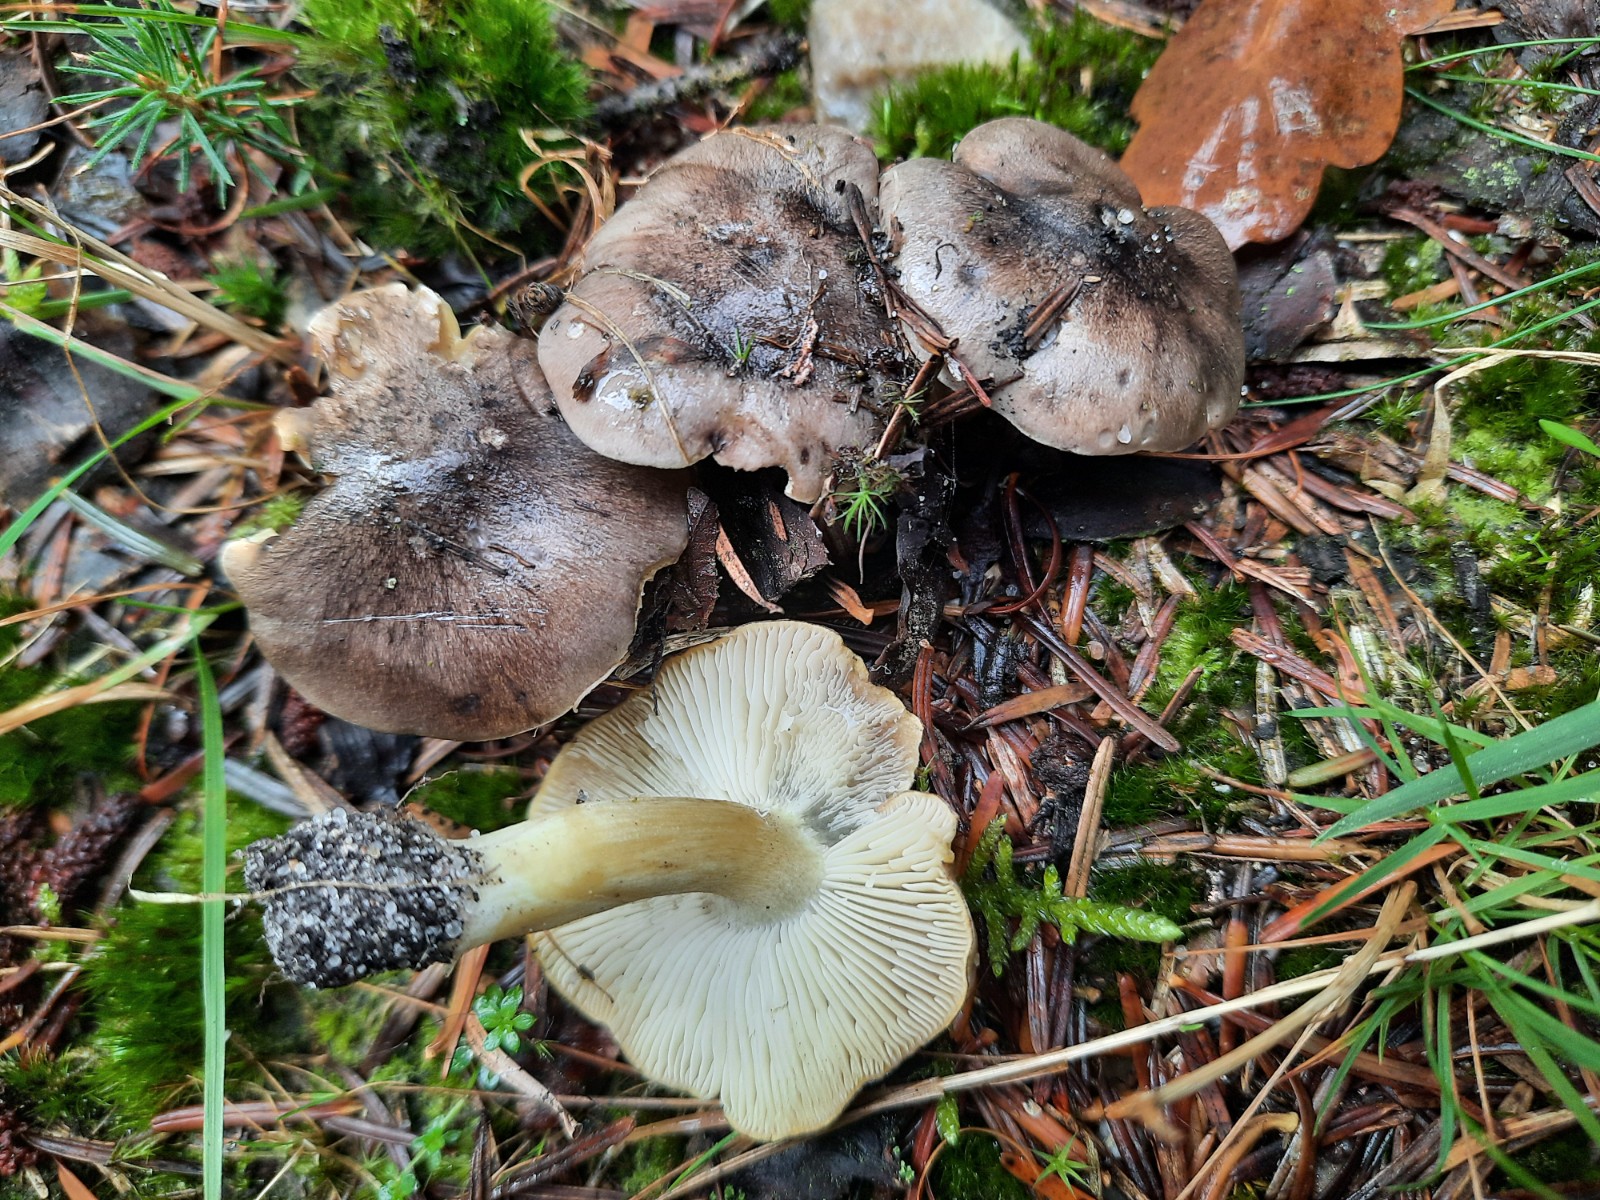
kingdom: Fungi
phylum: Basidiomycota
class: Agaricomycetes
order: Agaricales
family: Tricholomataceae
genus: Tricholoma
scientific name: Tricholoma portentosum
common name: grå ridderhat
